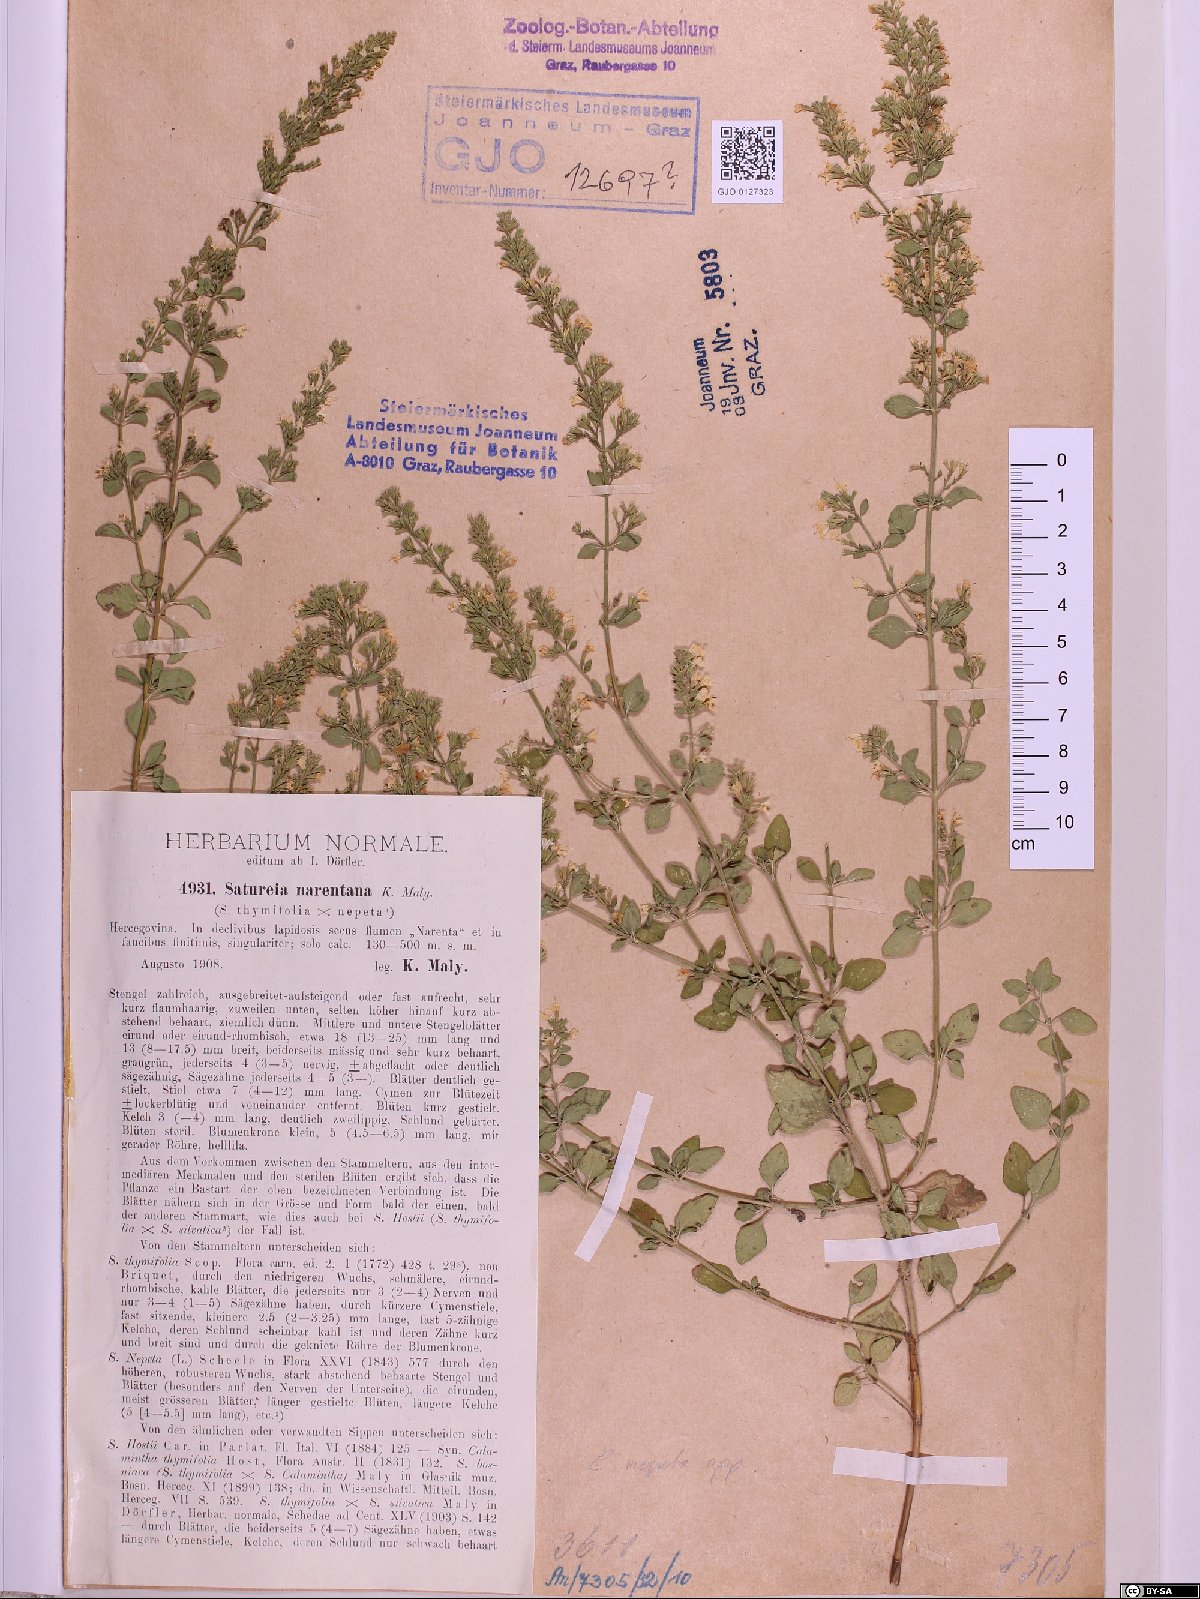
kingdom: Plantae
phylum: Tracheophyta
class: Magnoliopsida
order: Lamiales
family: Lamiaceae
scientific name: Lamiaceae
